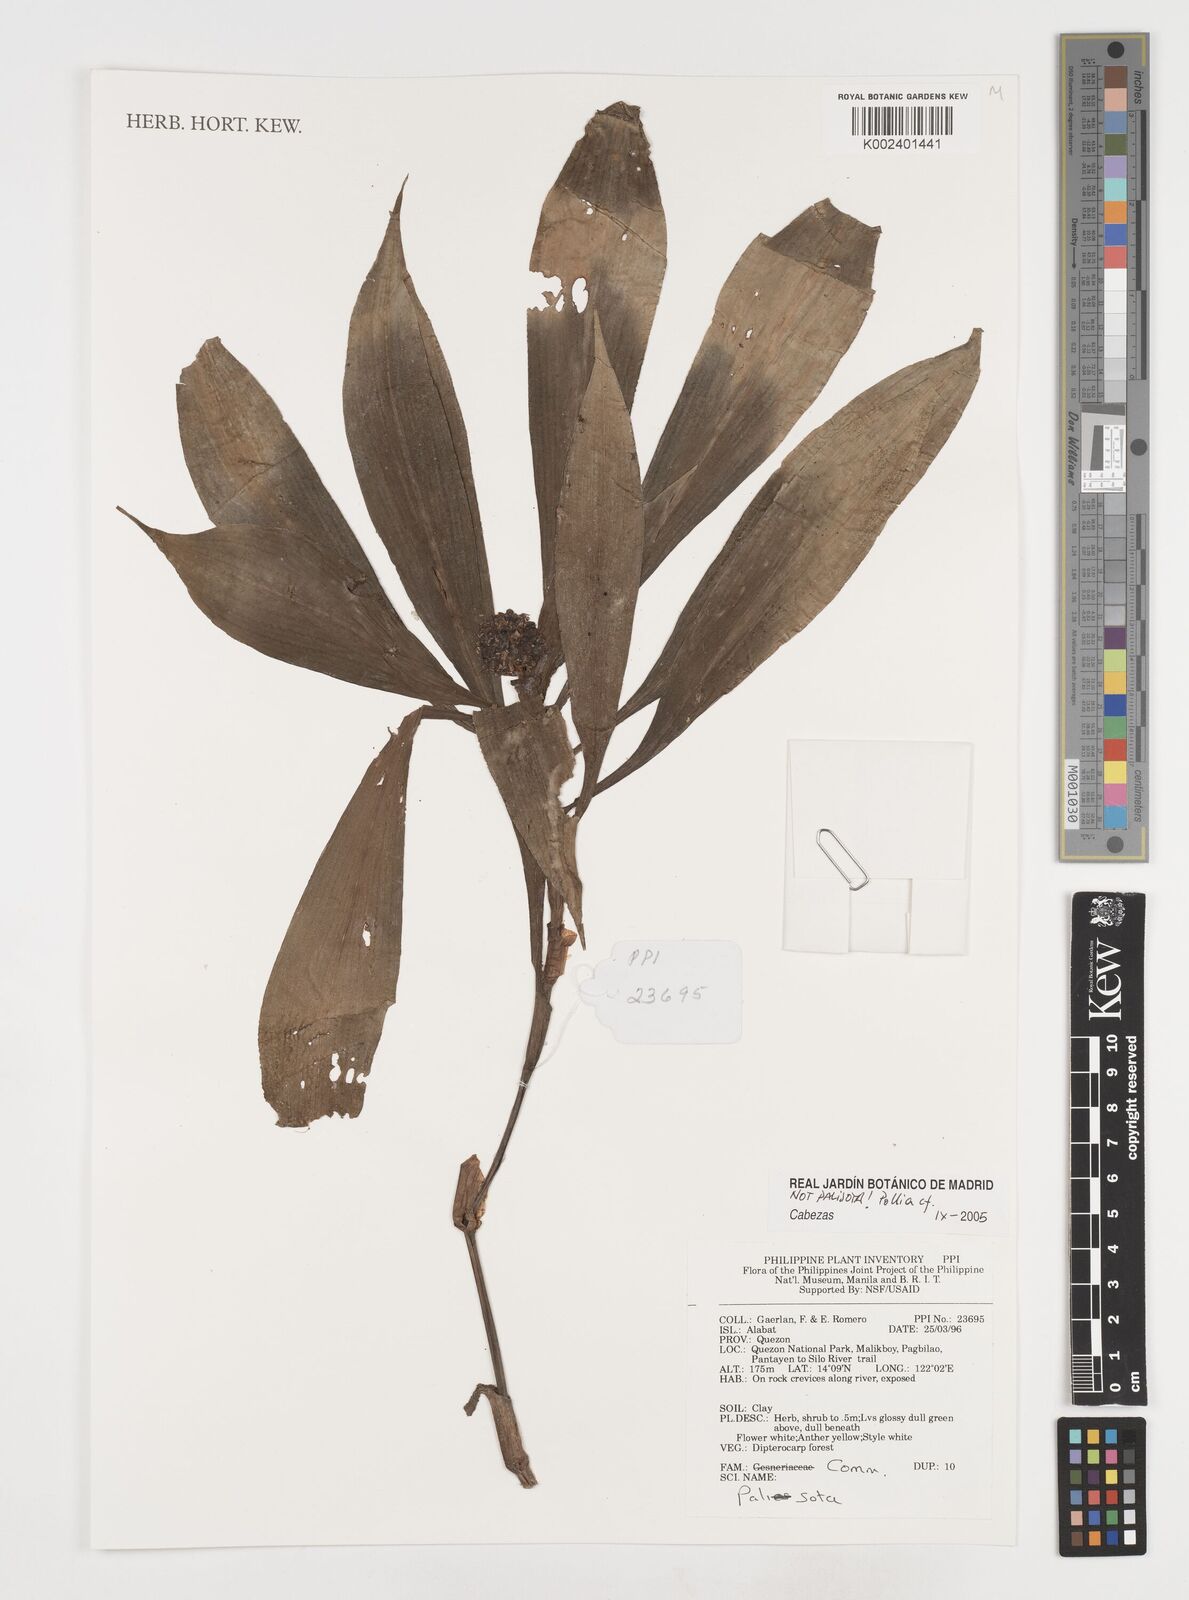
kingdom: Plantae
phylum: Tracheophyta
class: Liliopsida
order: Commelinales
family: Commelinaceae
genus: Pollia
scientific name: Pollia thyrsiflora
